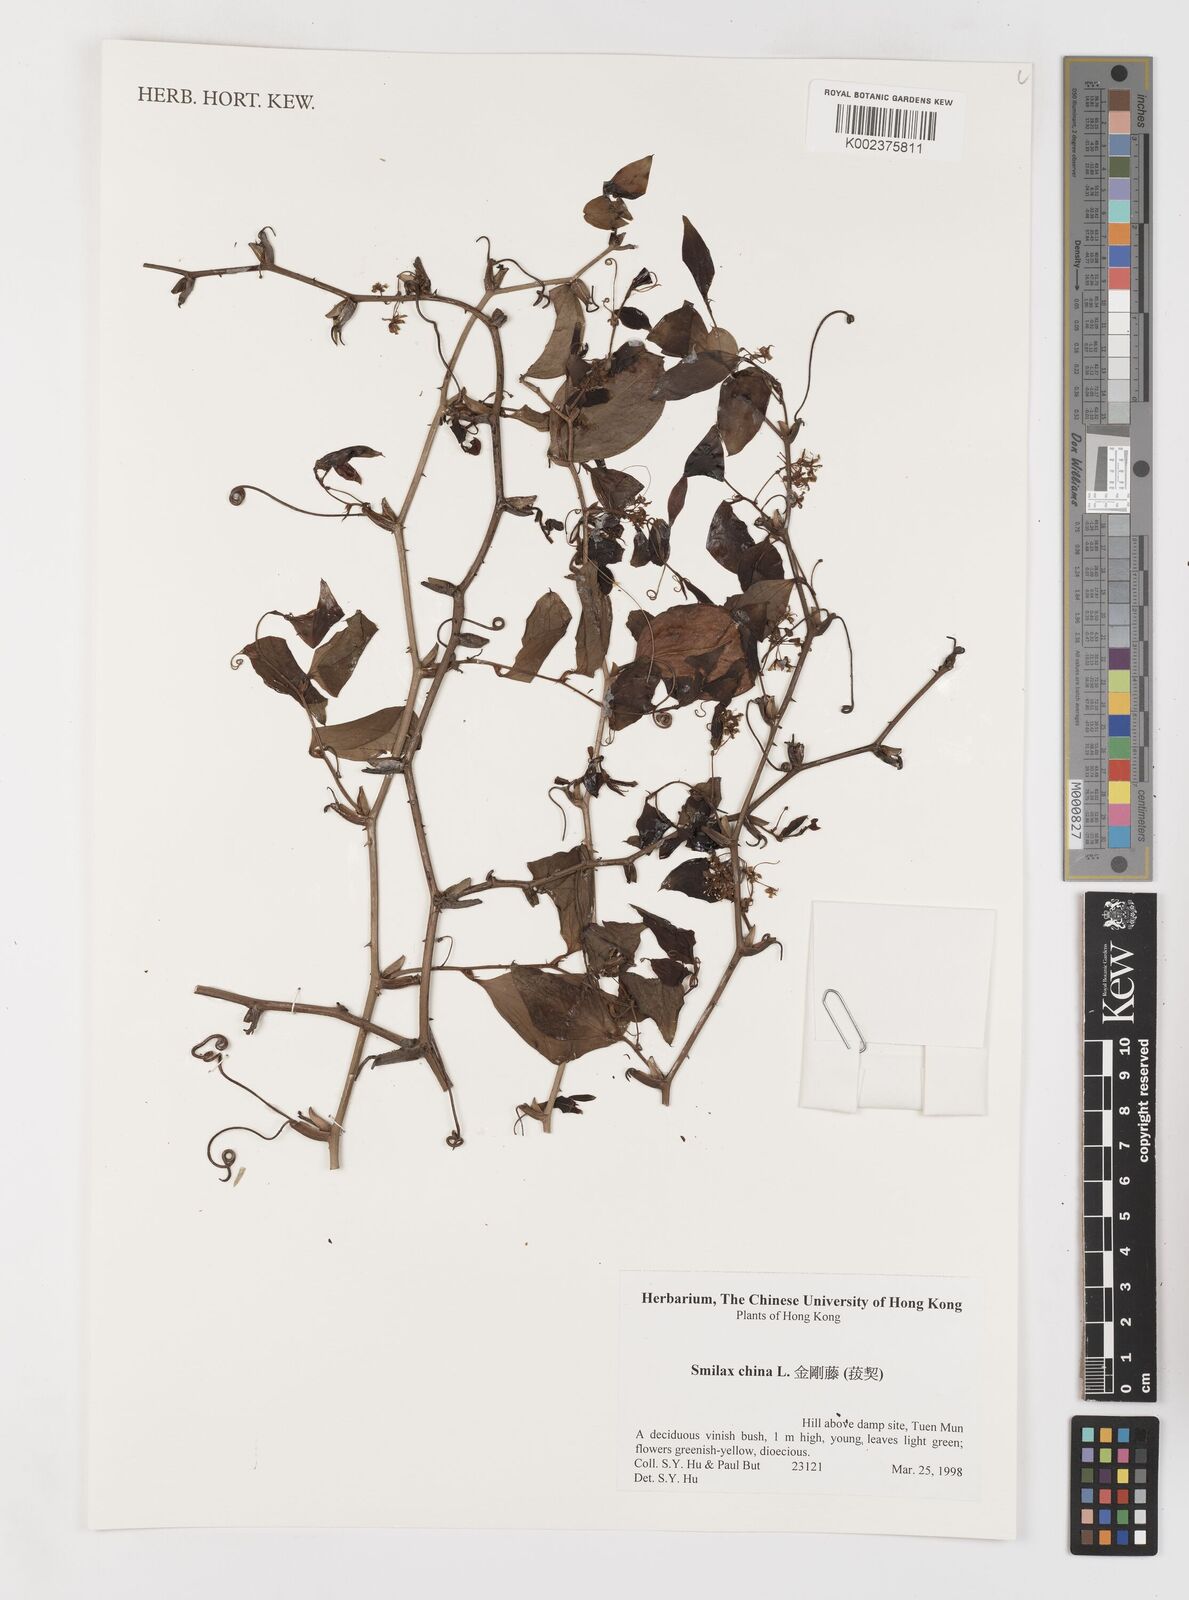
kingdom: Plantae
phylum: Tracheophyta
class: Liliopsida
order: Liliales
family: Smilacaceae
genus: Smilax
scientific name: Smilax china
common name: Chinaroot
